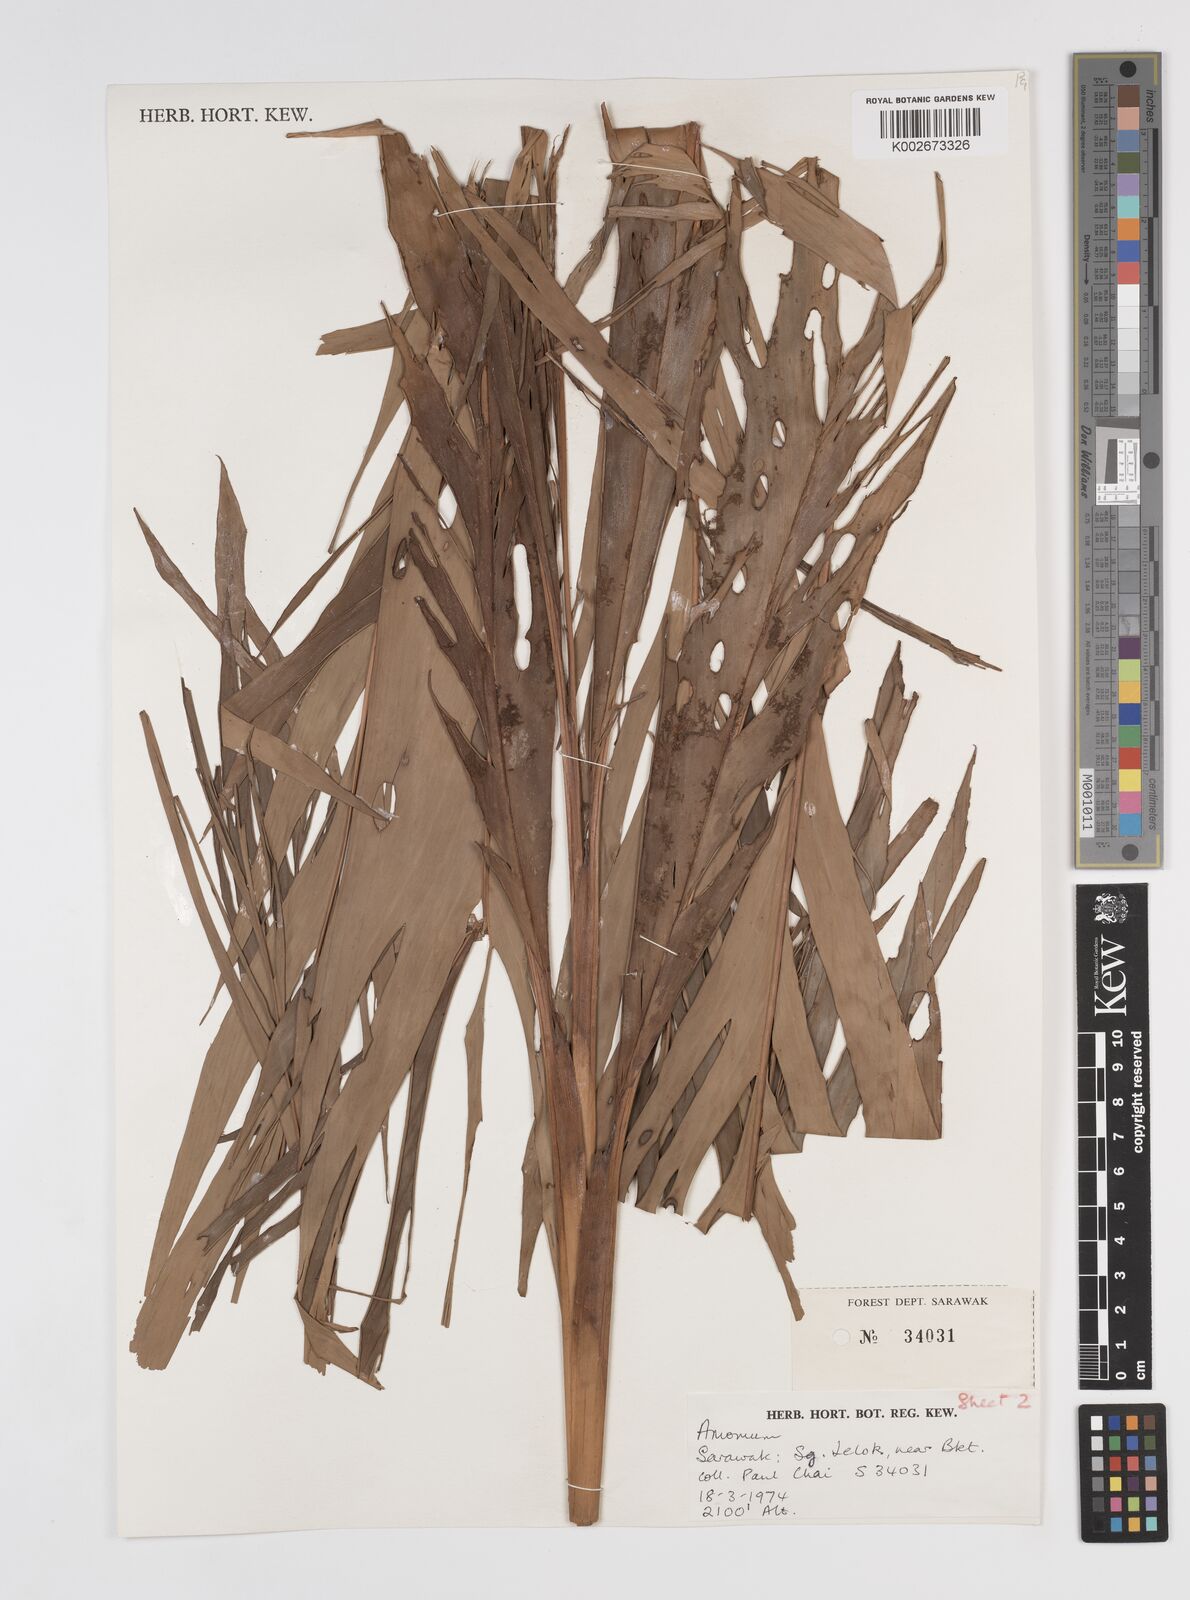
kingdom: Plantae
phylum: Tracheophyta
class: Liliopsida
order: Zingiberales
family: Zingiberaceae
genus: Sulettaria
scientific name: Sulettaria anomala
